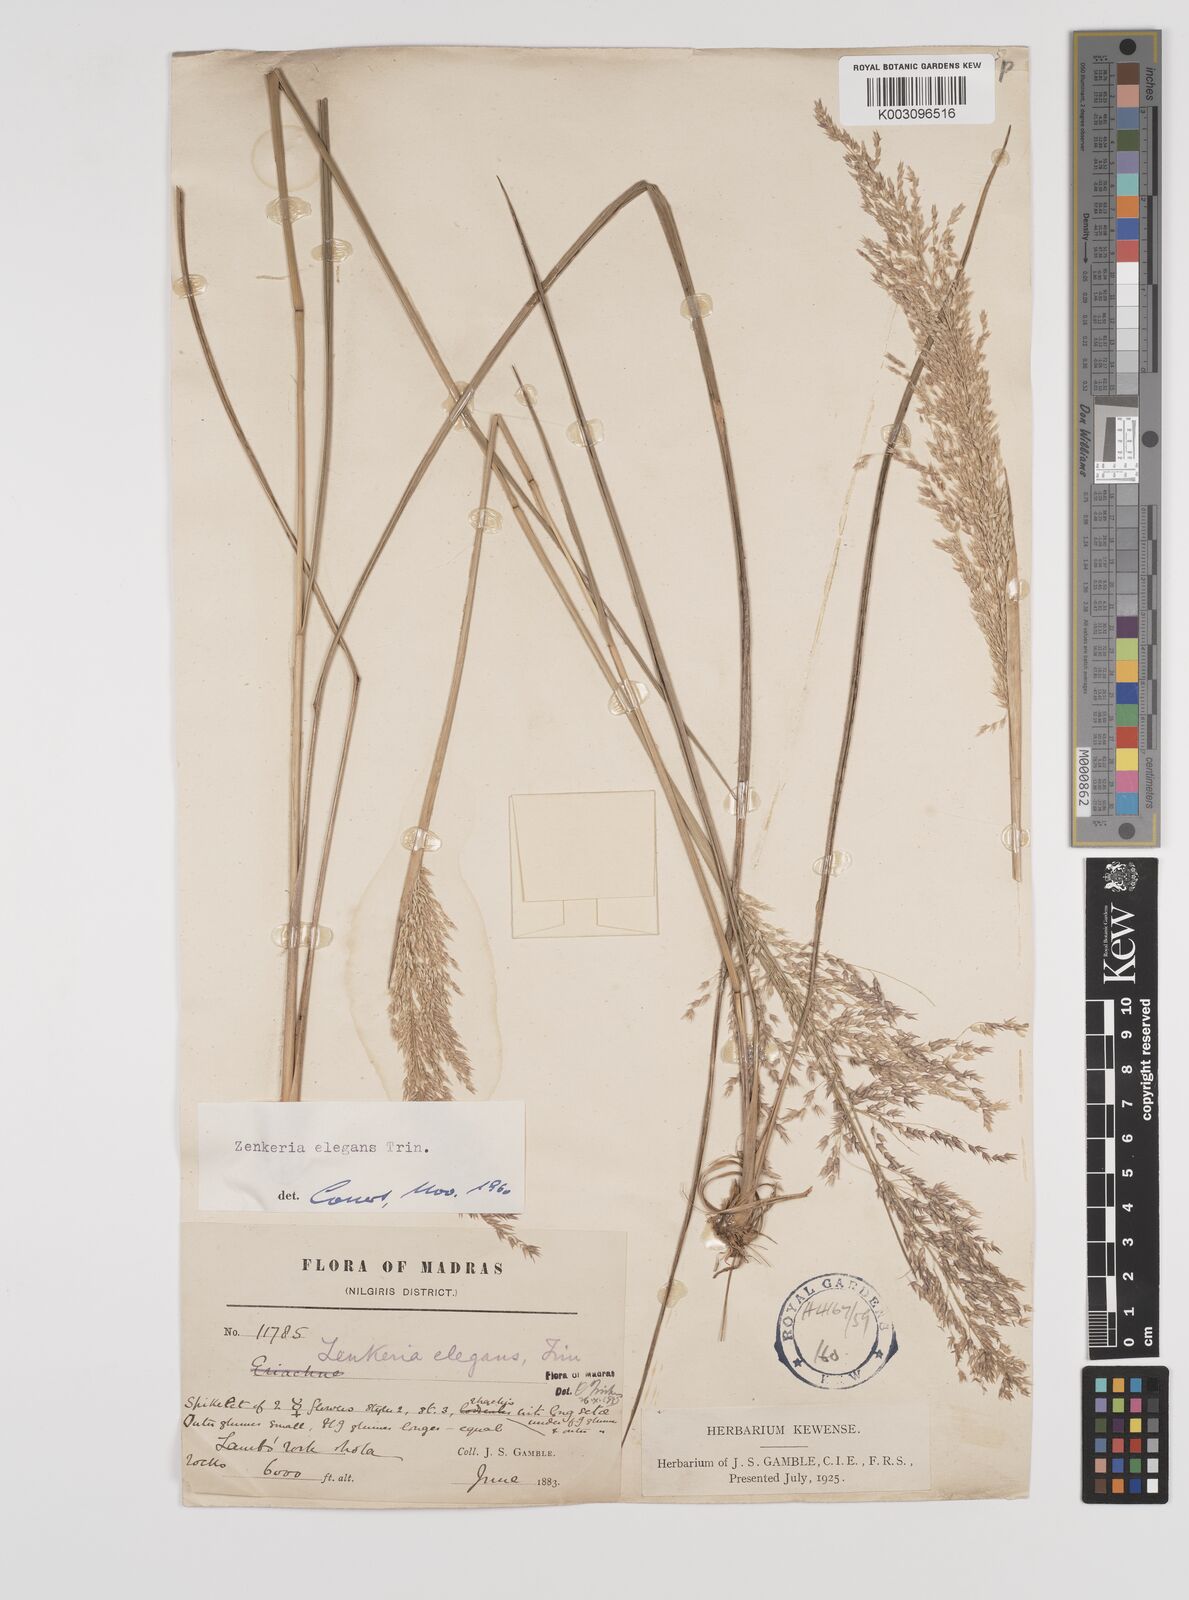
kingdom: Plantae
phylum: Tracheophyta
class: Liliopsida
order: Poales
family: Poaceae
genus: Zenkeria
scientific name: Zenkeria elegans
